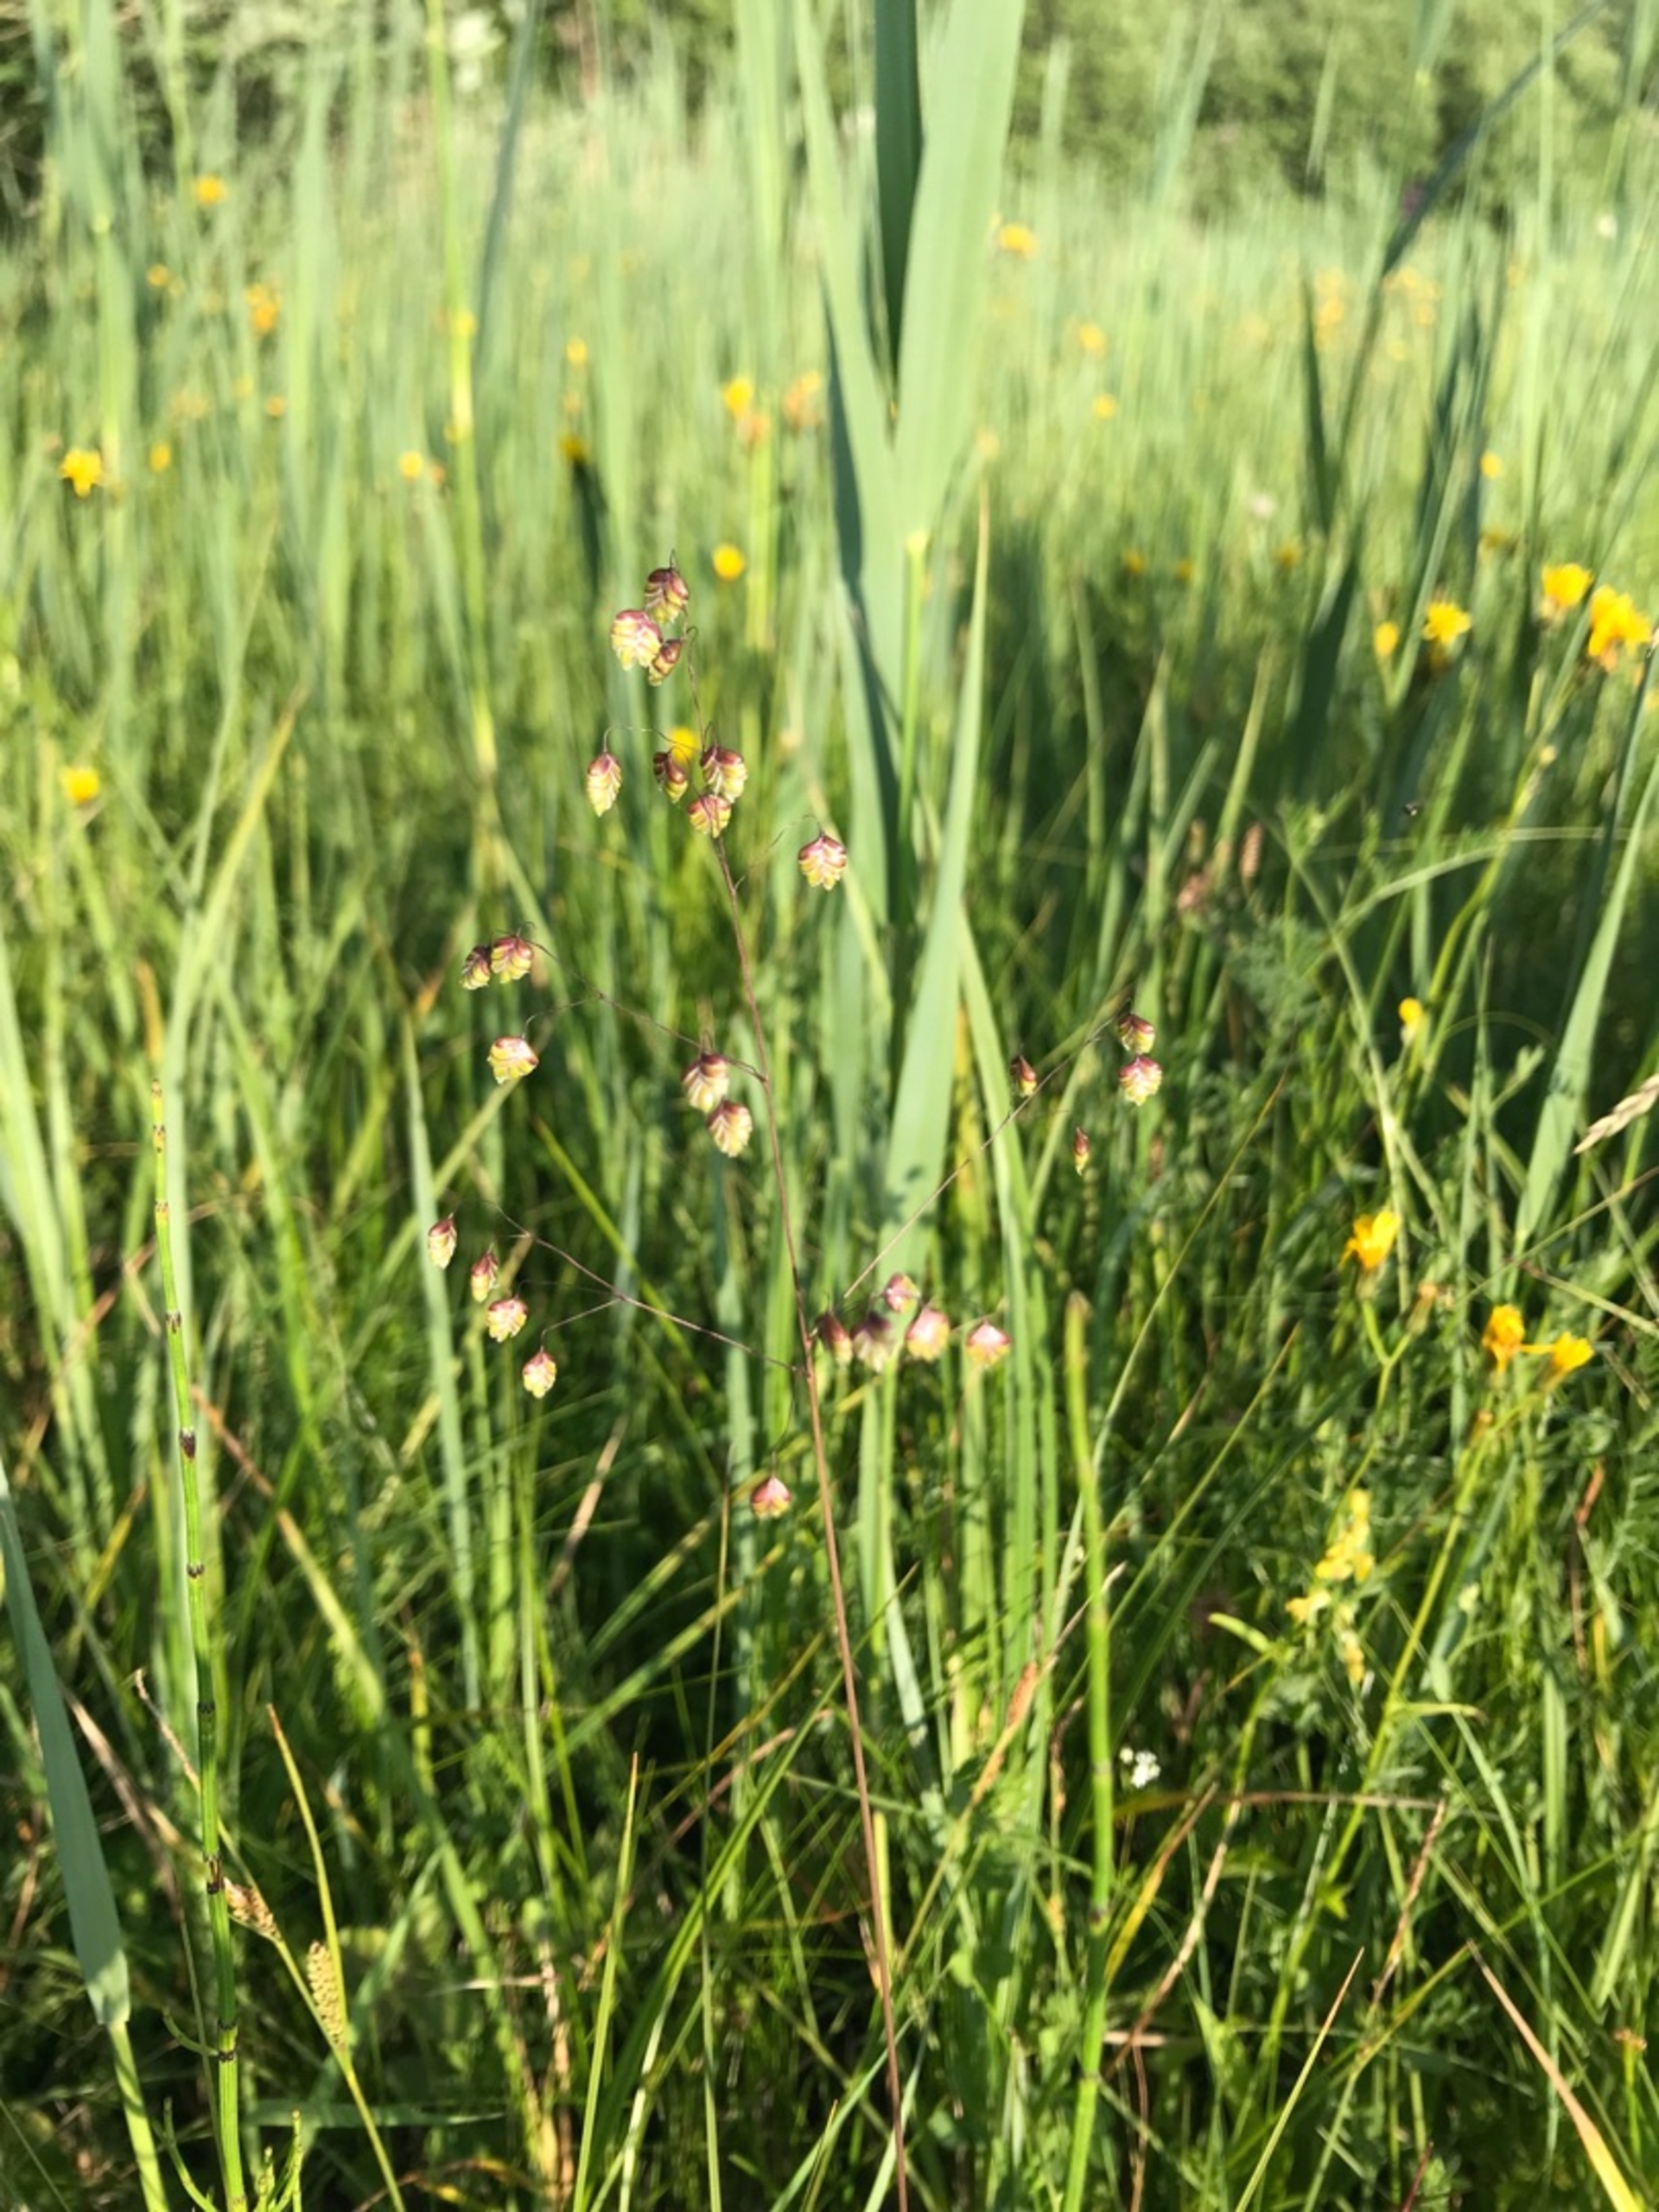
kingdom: Plantae
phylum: Tracheophyta
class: Liliopsida
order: Poales
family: Poaceae
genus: Briza
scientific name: Briza media
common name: Hjertegræs
